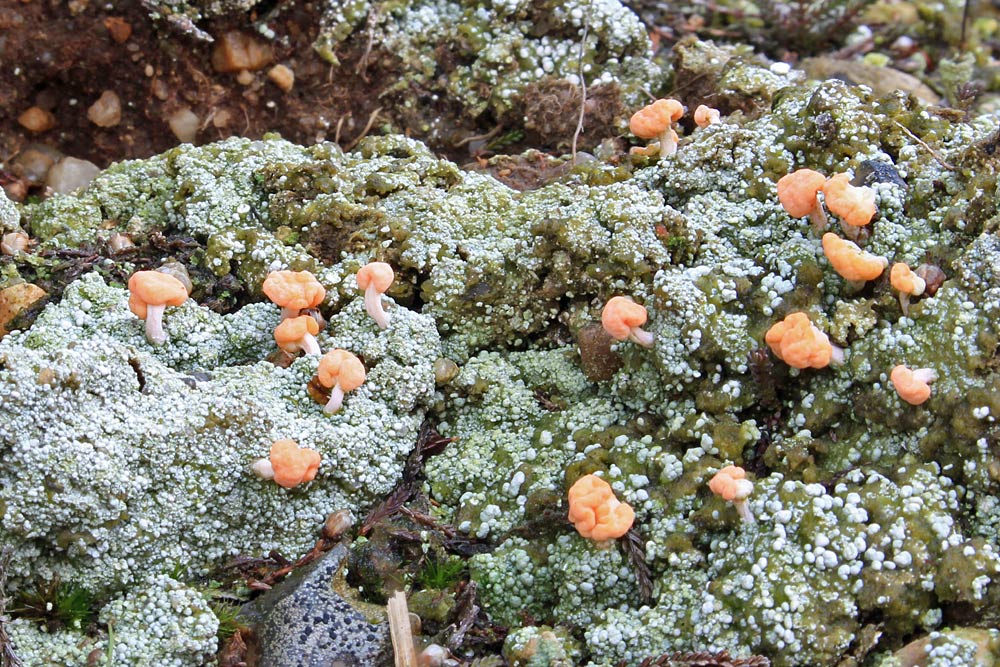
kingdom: Fungi
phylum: Ascomycota
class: Lecanoromycetes
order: Pertusariales
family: Icmadophilaceae
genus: Dibaeis
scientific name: Dibaeis baeomyces
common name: rosenrød stilav
